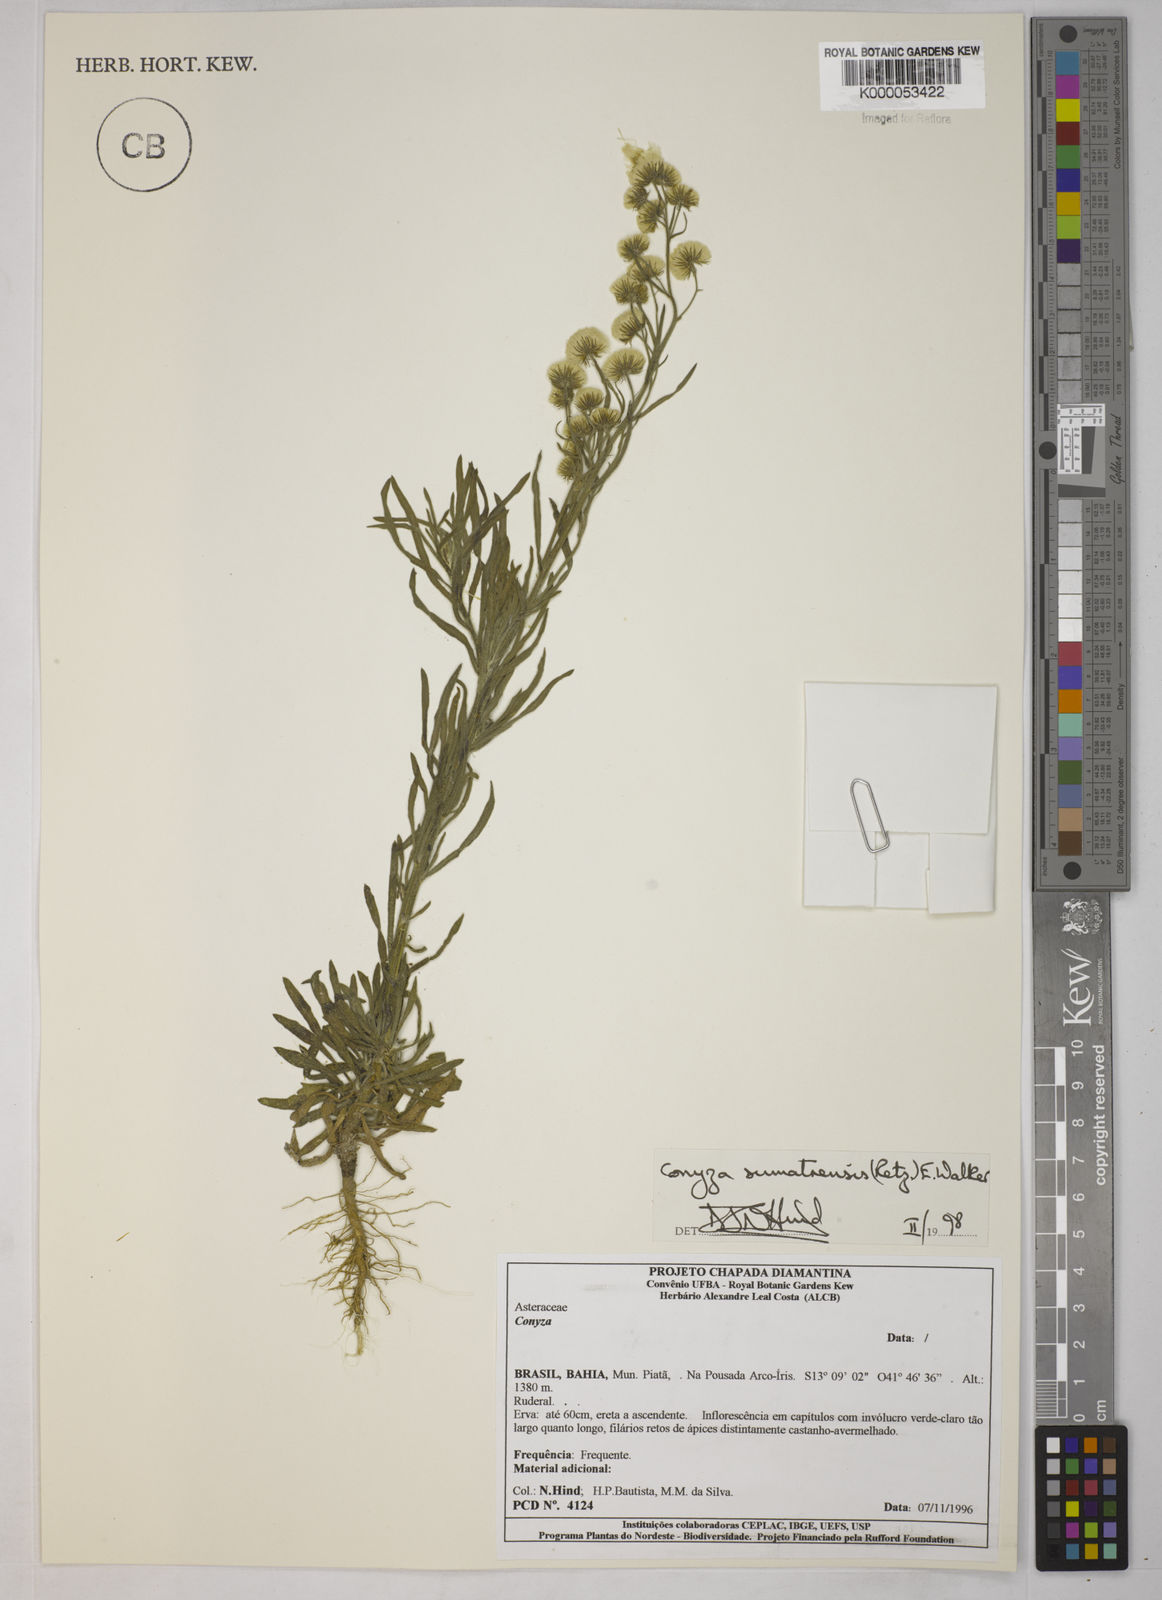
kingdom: Plantae
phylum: Tracheophyta
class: Magnoliopsida
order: Asterales
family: Asteraceae
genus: Erigeron
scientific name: Erigeron sumatrensis
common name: Daisy
